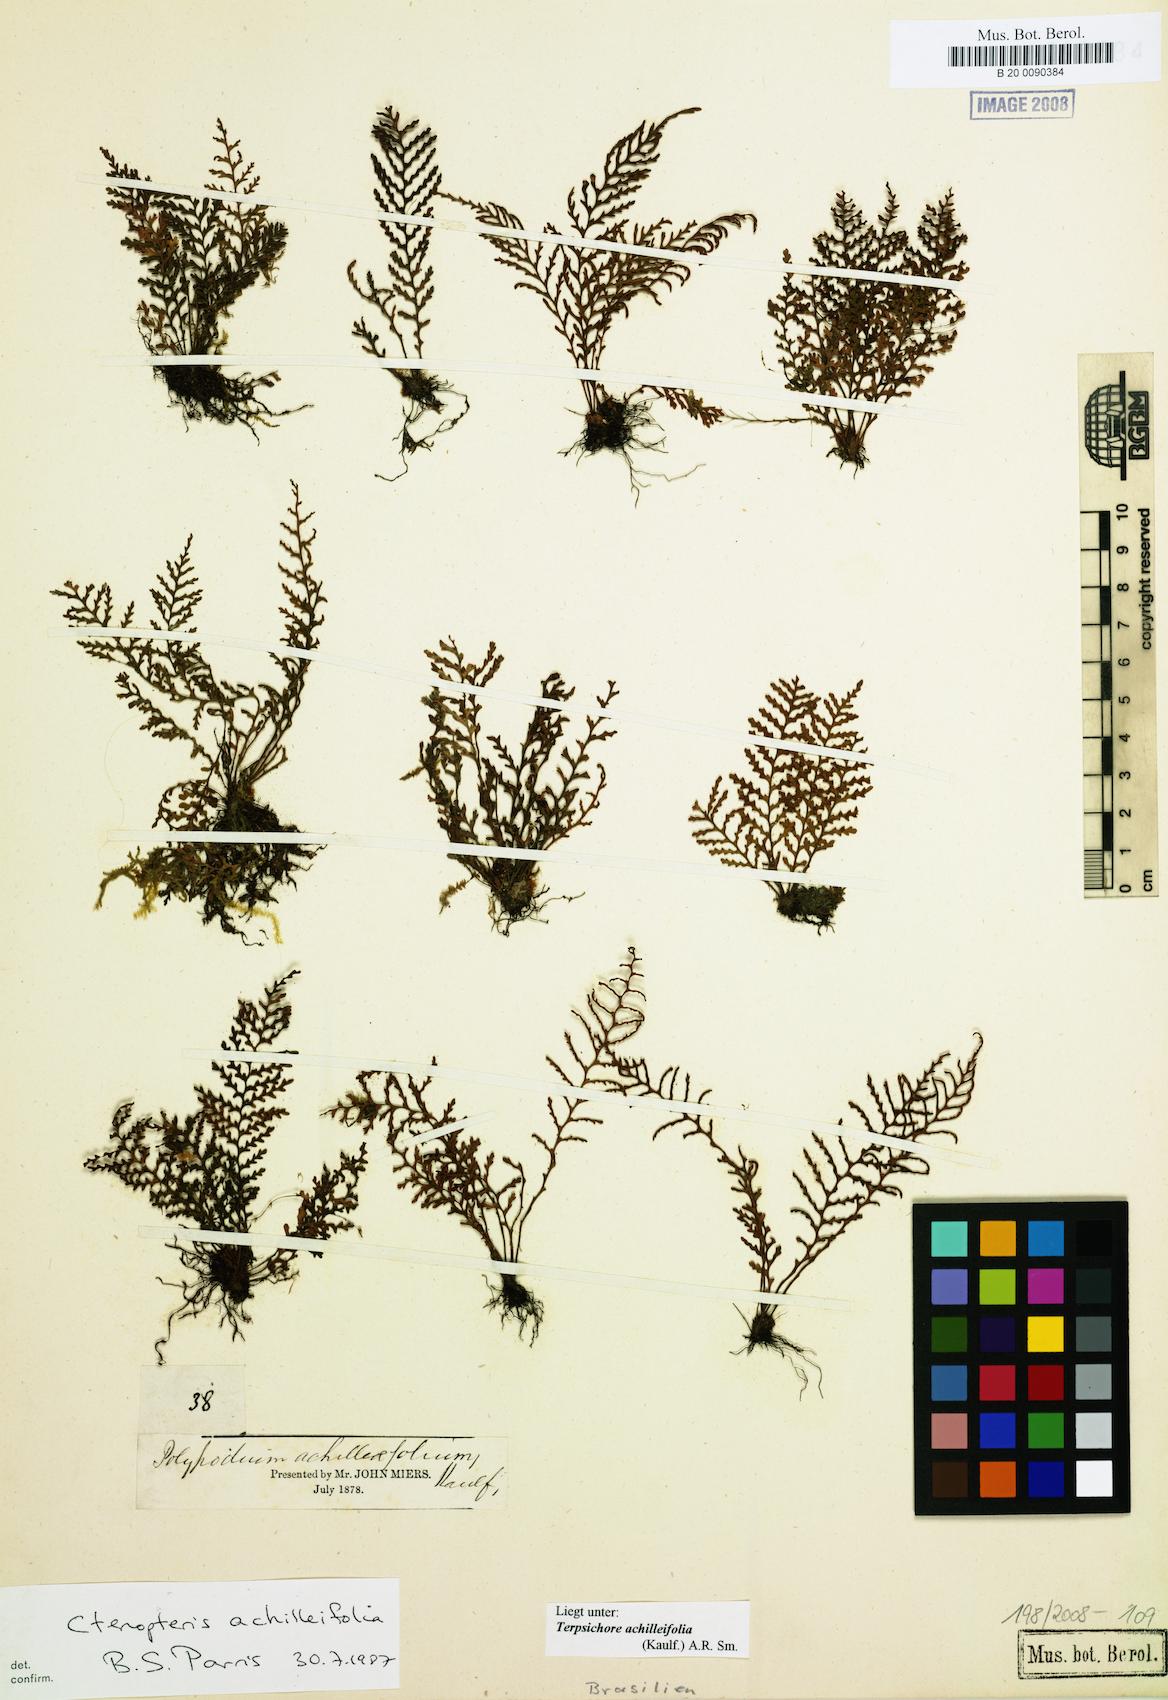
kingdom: Plantae
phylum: Tracheophyta
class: Polypodiopsida
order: Polypodiales
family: Polypodiaceae
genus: Moranopteris
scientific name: Moranopteris achilleifolia
